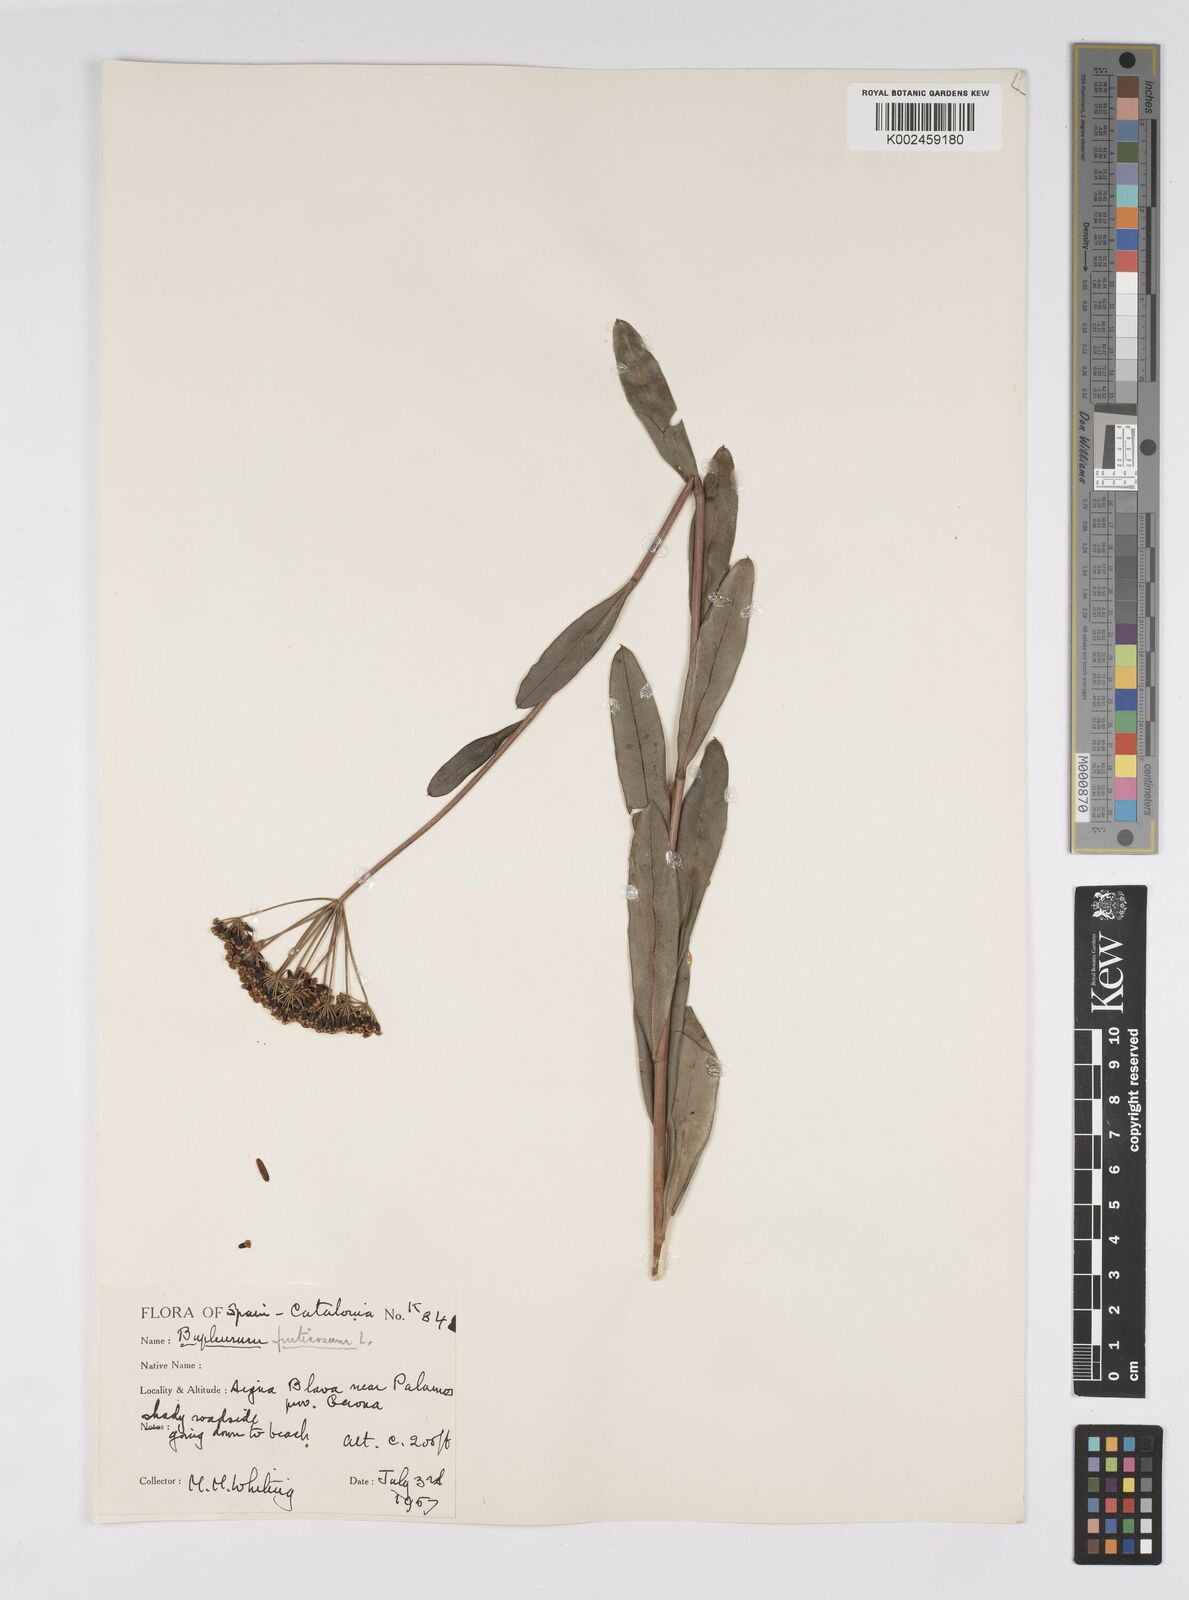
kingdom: Plantae
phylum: Tracheophyta
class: Magnoliopsida
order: Apiales
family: Apiaceae
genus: Bupleurum
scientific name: Bupleurum fruticosum
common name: Shrubby hare's-ear
